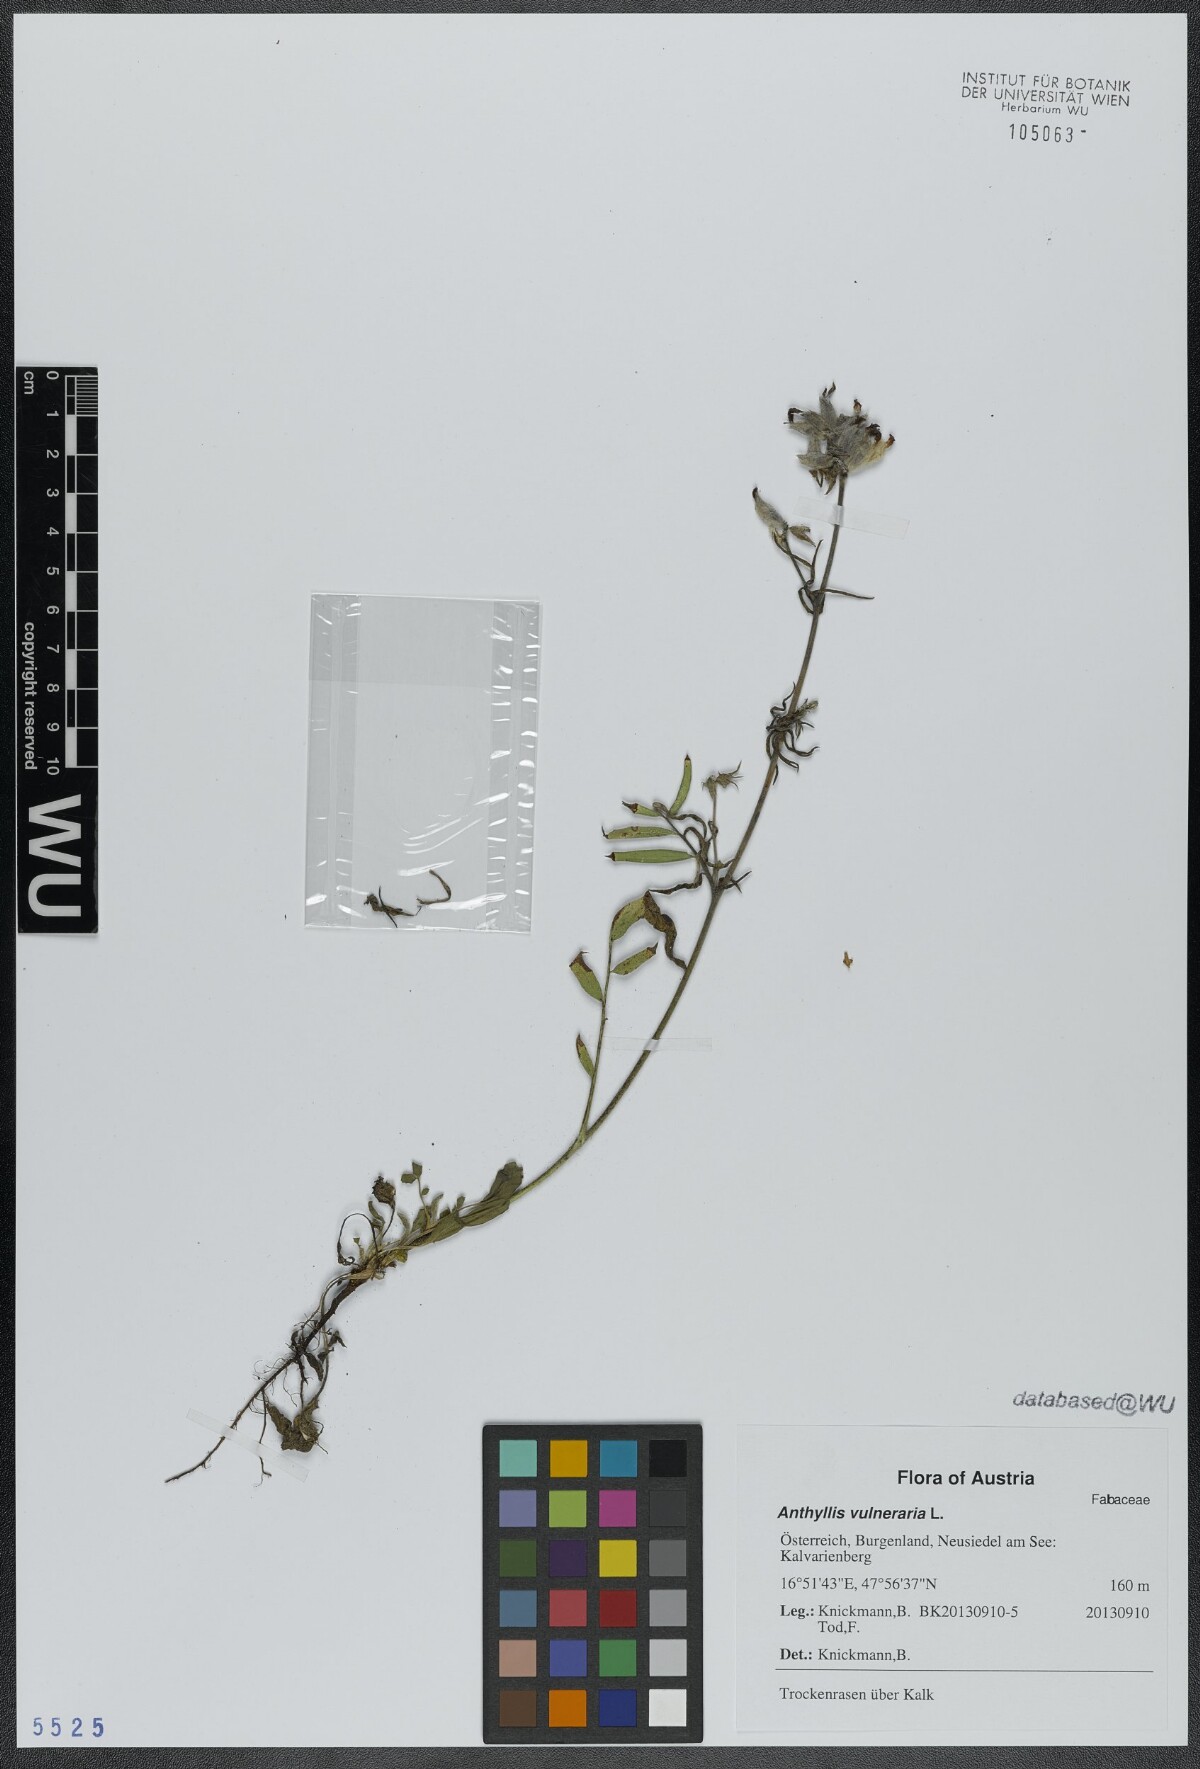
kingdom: Plantae
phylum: Tracheophyta
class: Magnoliopsida
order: Fabales
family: Fabaceae
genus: Anthyllis
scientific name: Anthyllis vulneraria
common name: Kidney vetch
